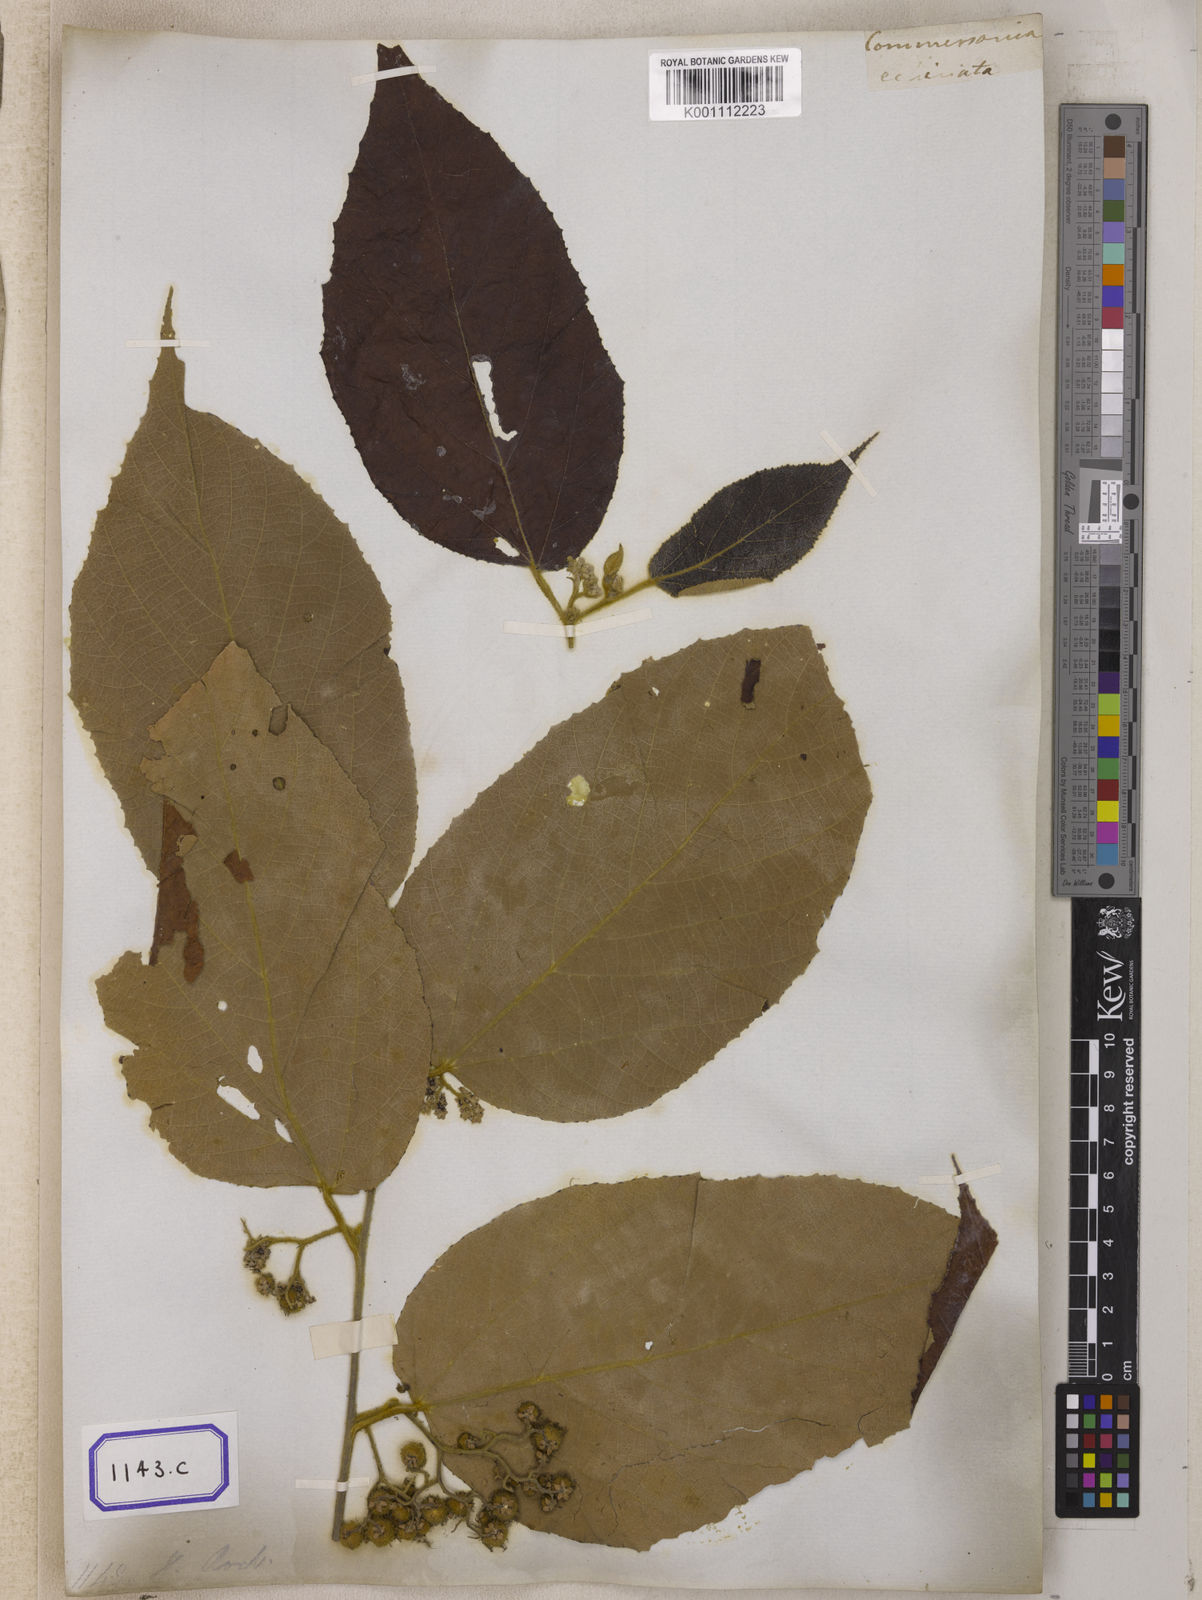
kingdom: Plantae
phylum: Tracheophyta
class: Magnoliopsida
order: Malvales
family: Malvaceae
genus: Commersonia
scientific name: Commersonia bartramia
